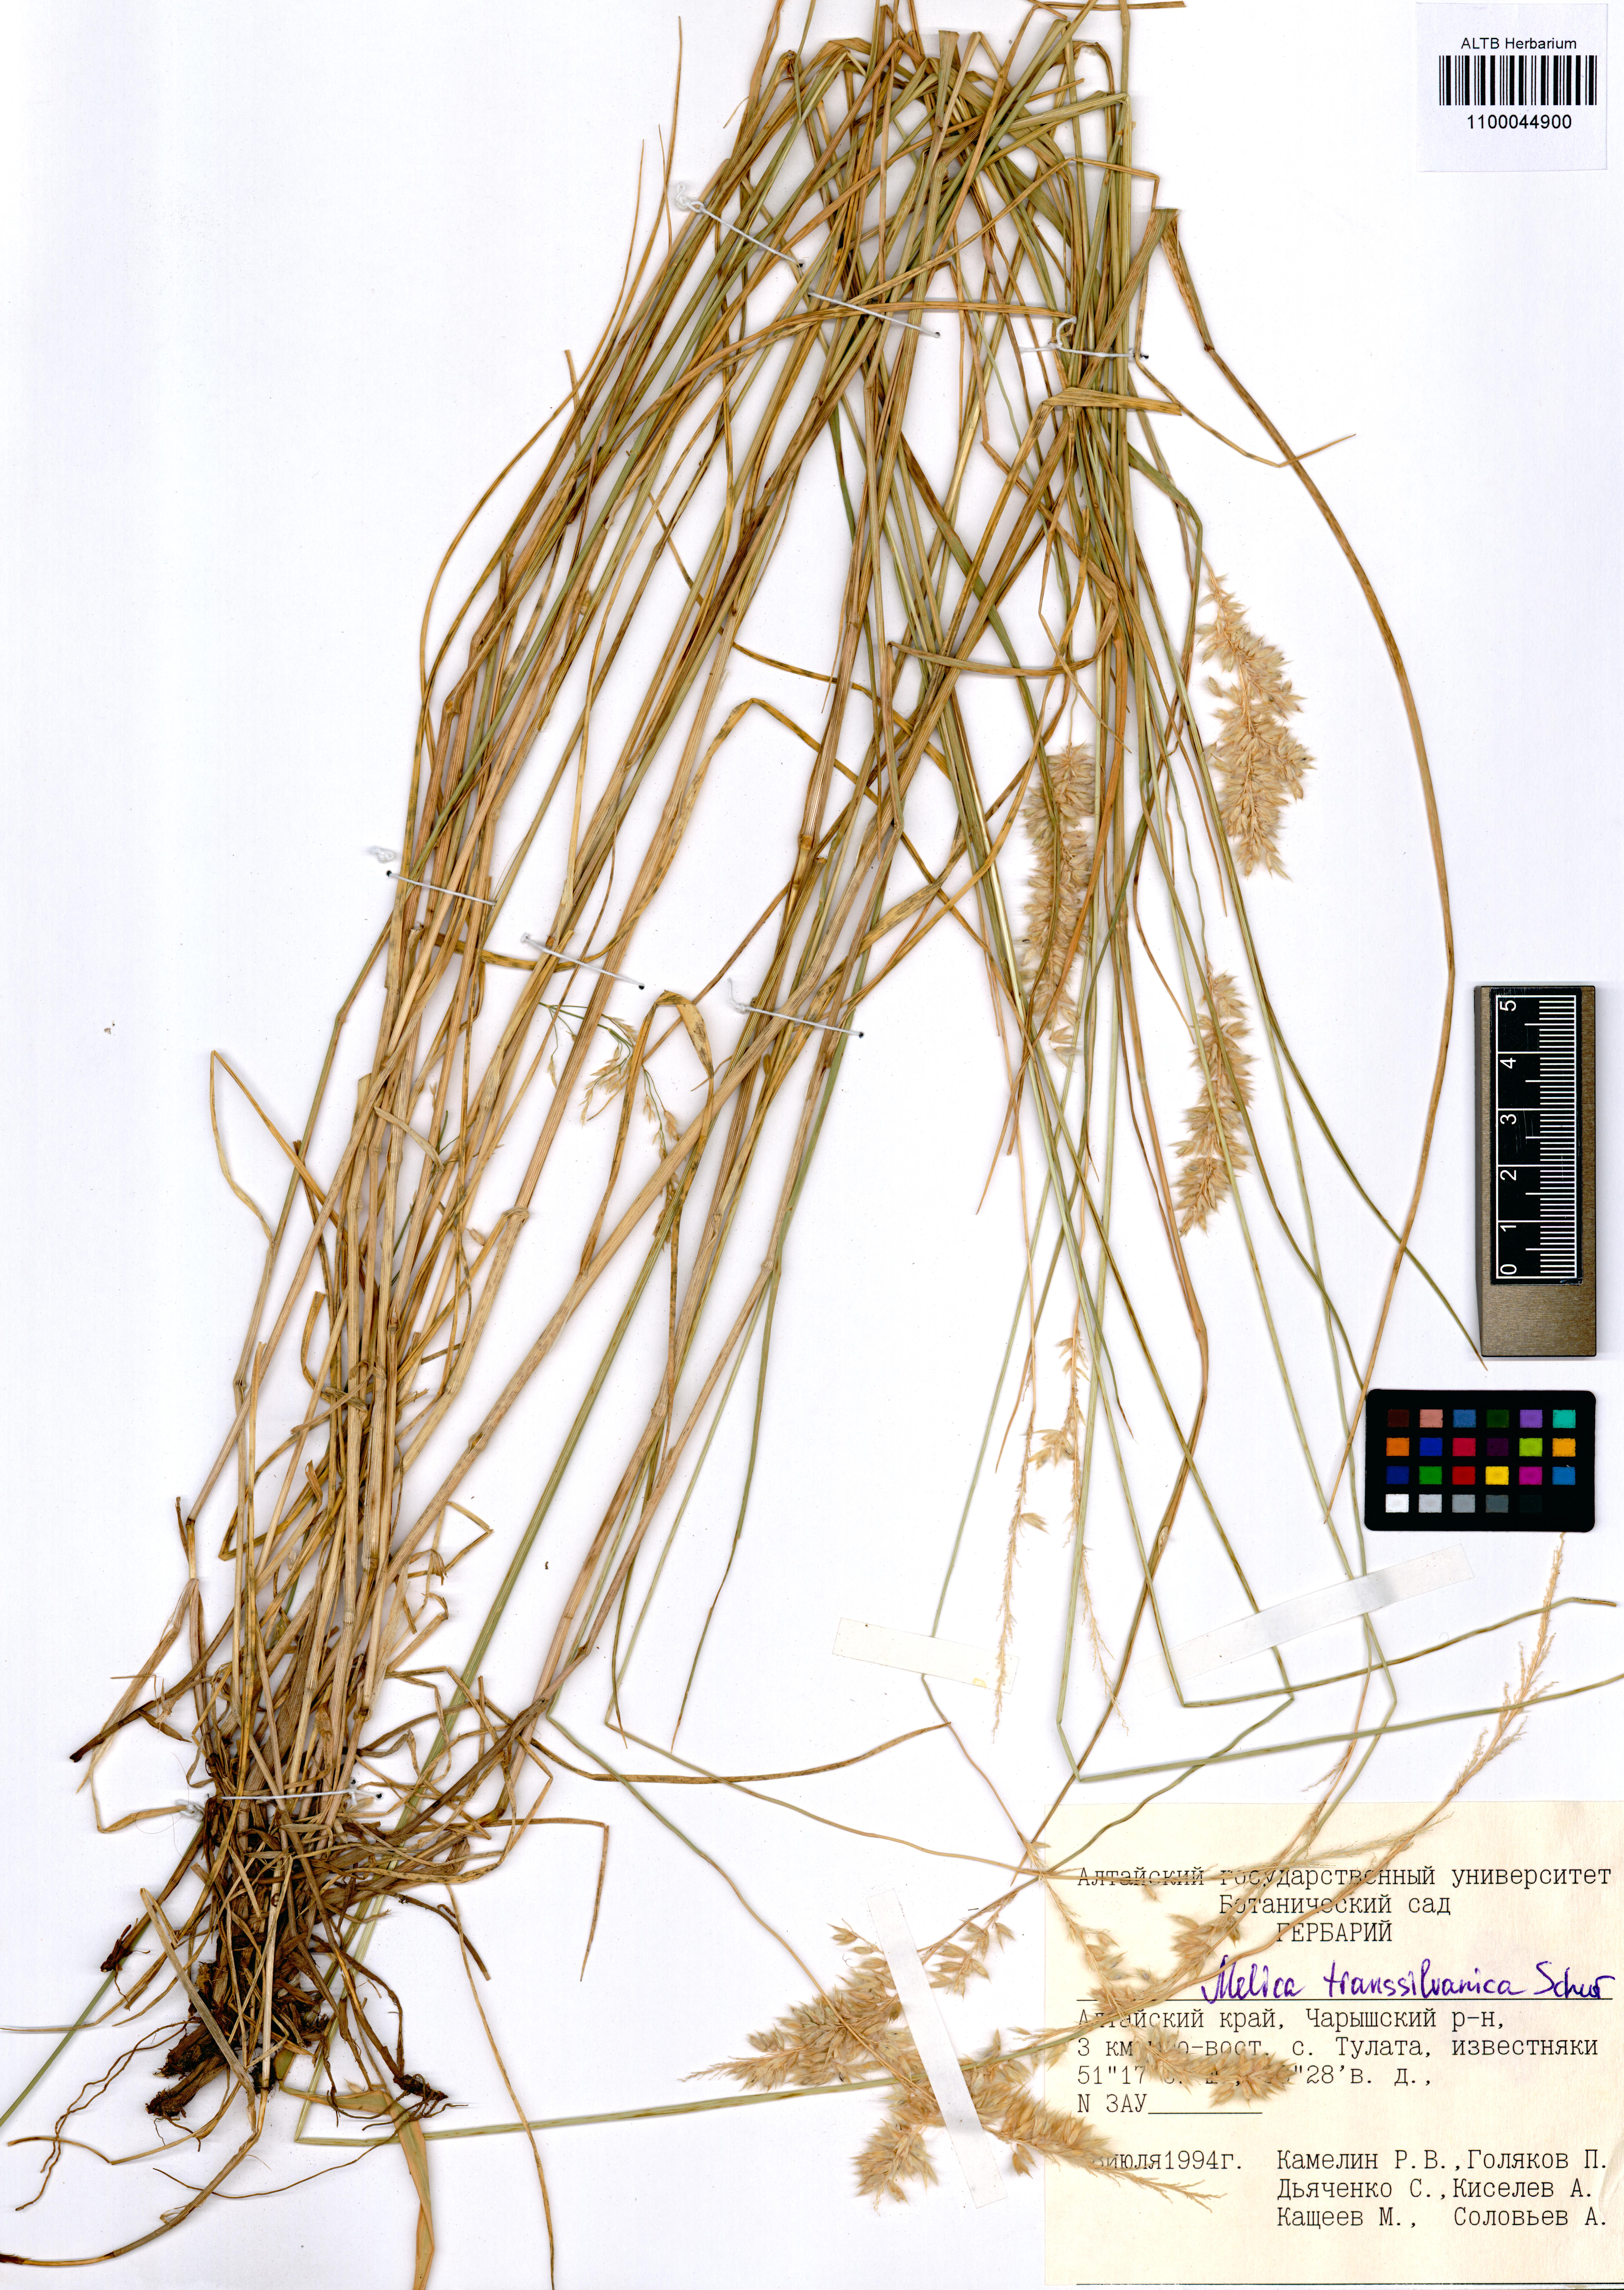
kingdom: Plantae
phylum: Tracheophyta
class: Liliopsida
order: Poales
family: Poaceae
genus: Melica
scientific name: Melica transsilvanica
